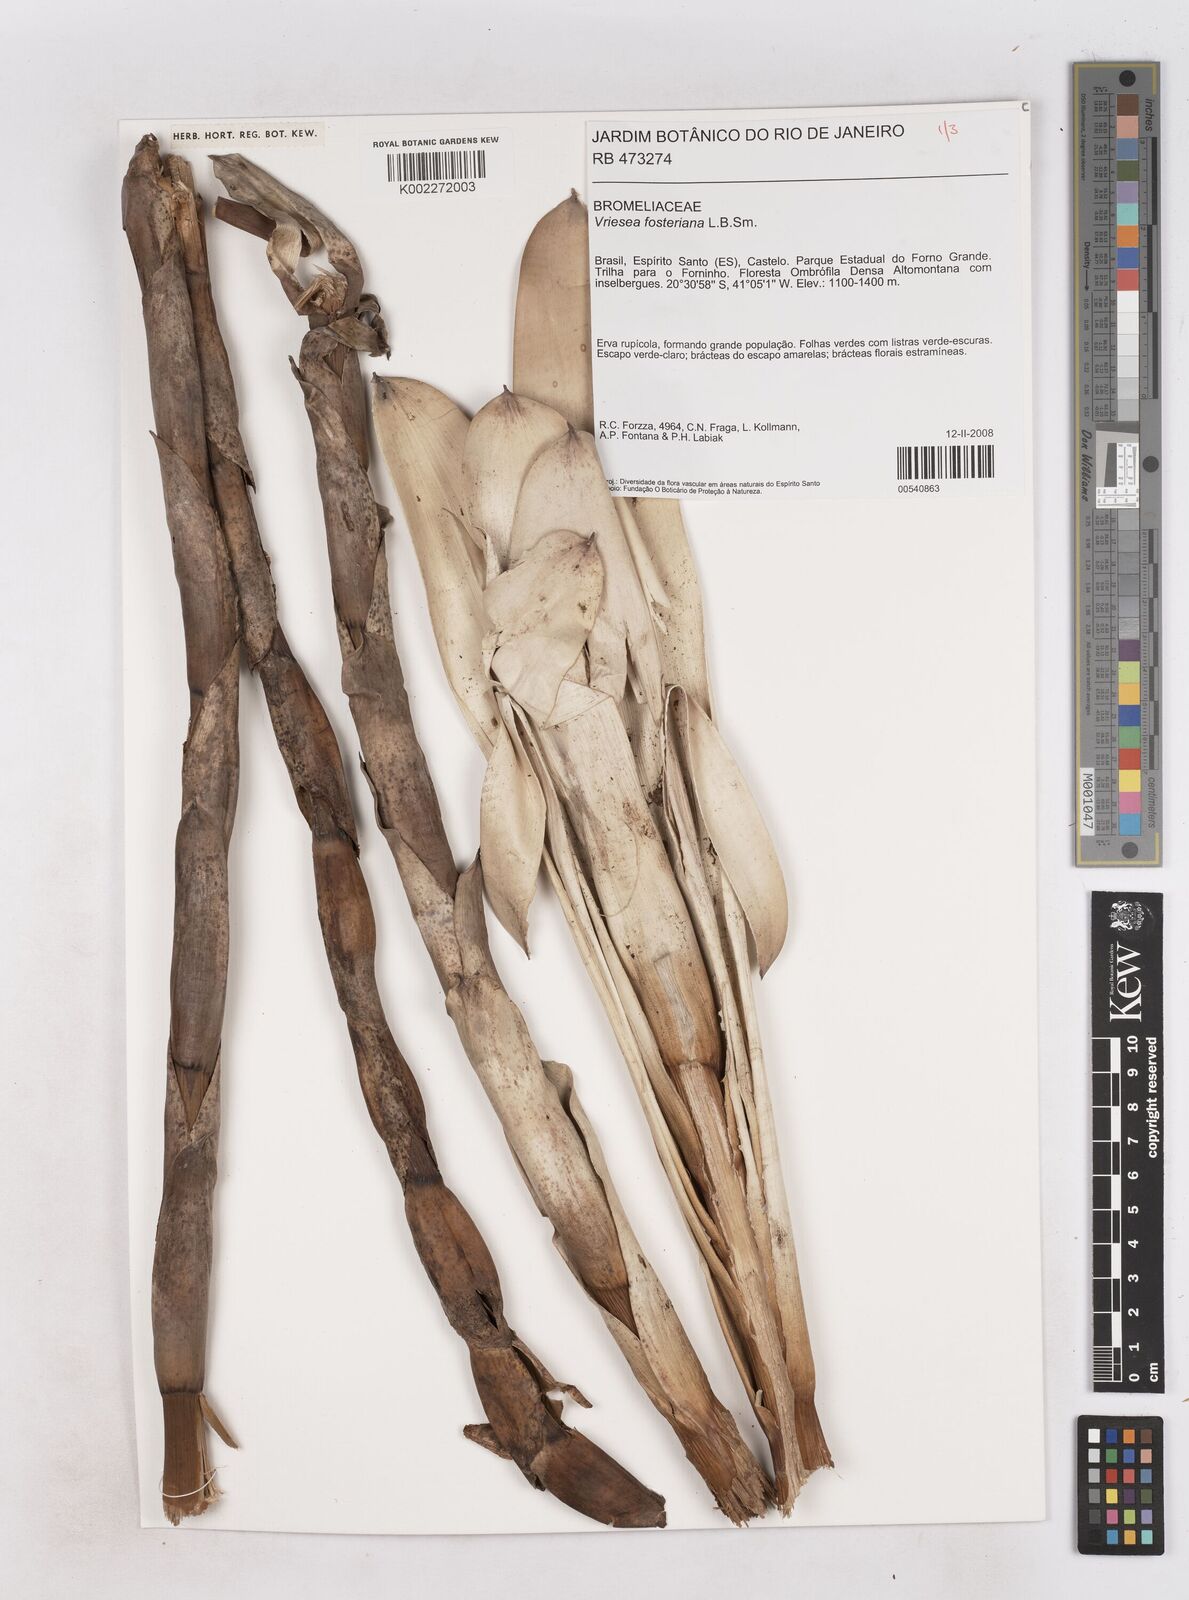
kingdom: Plantae
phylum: Tracheophyta
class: Liliopsida
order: Poales
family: Bromeliaceae
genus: Vriesea
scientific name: Vriesea fosteriana
